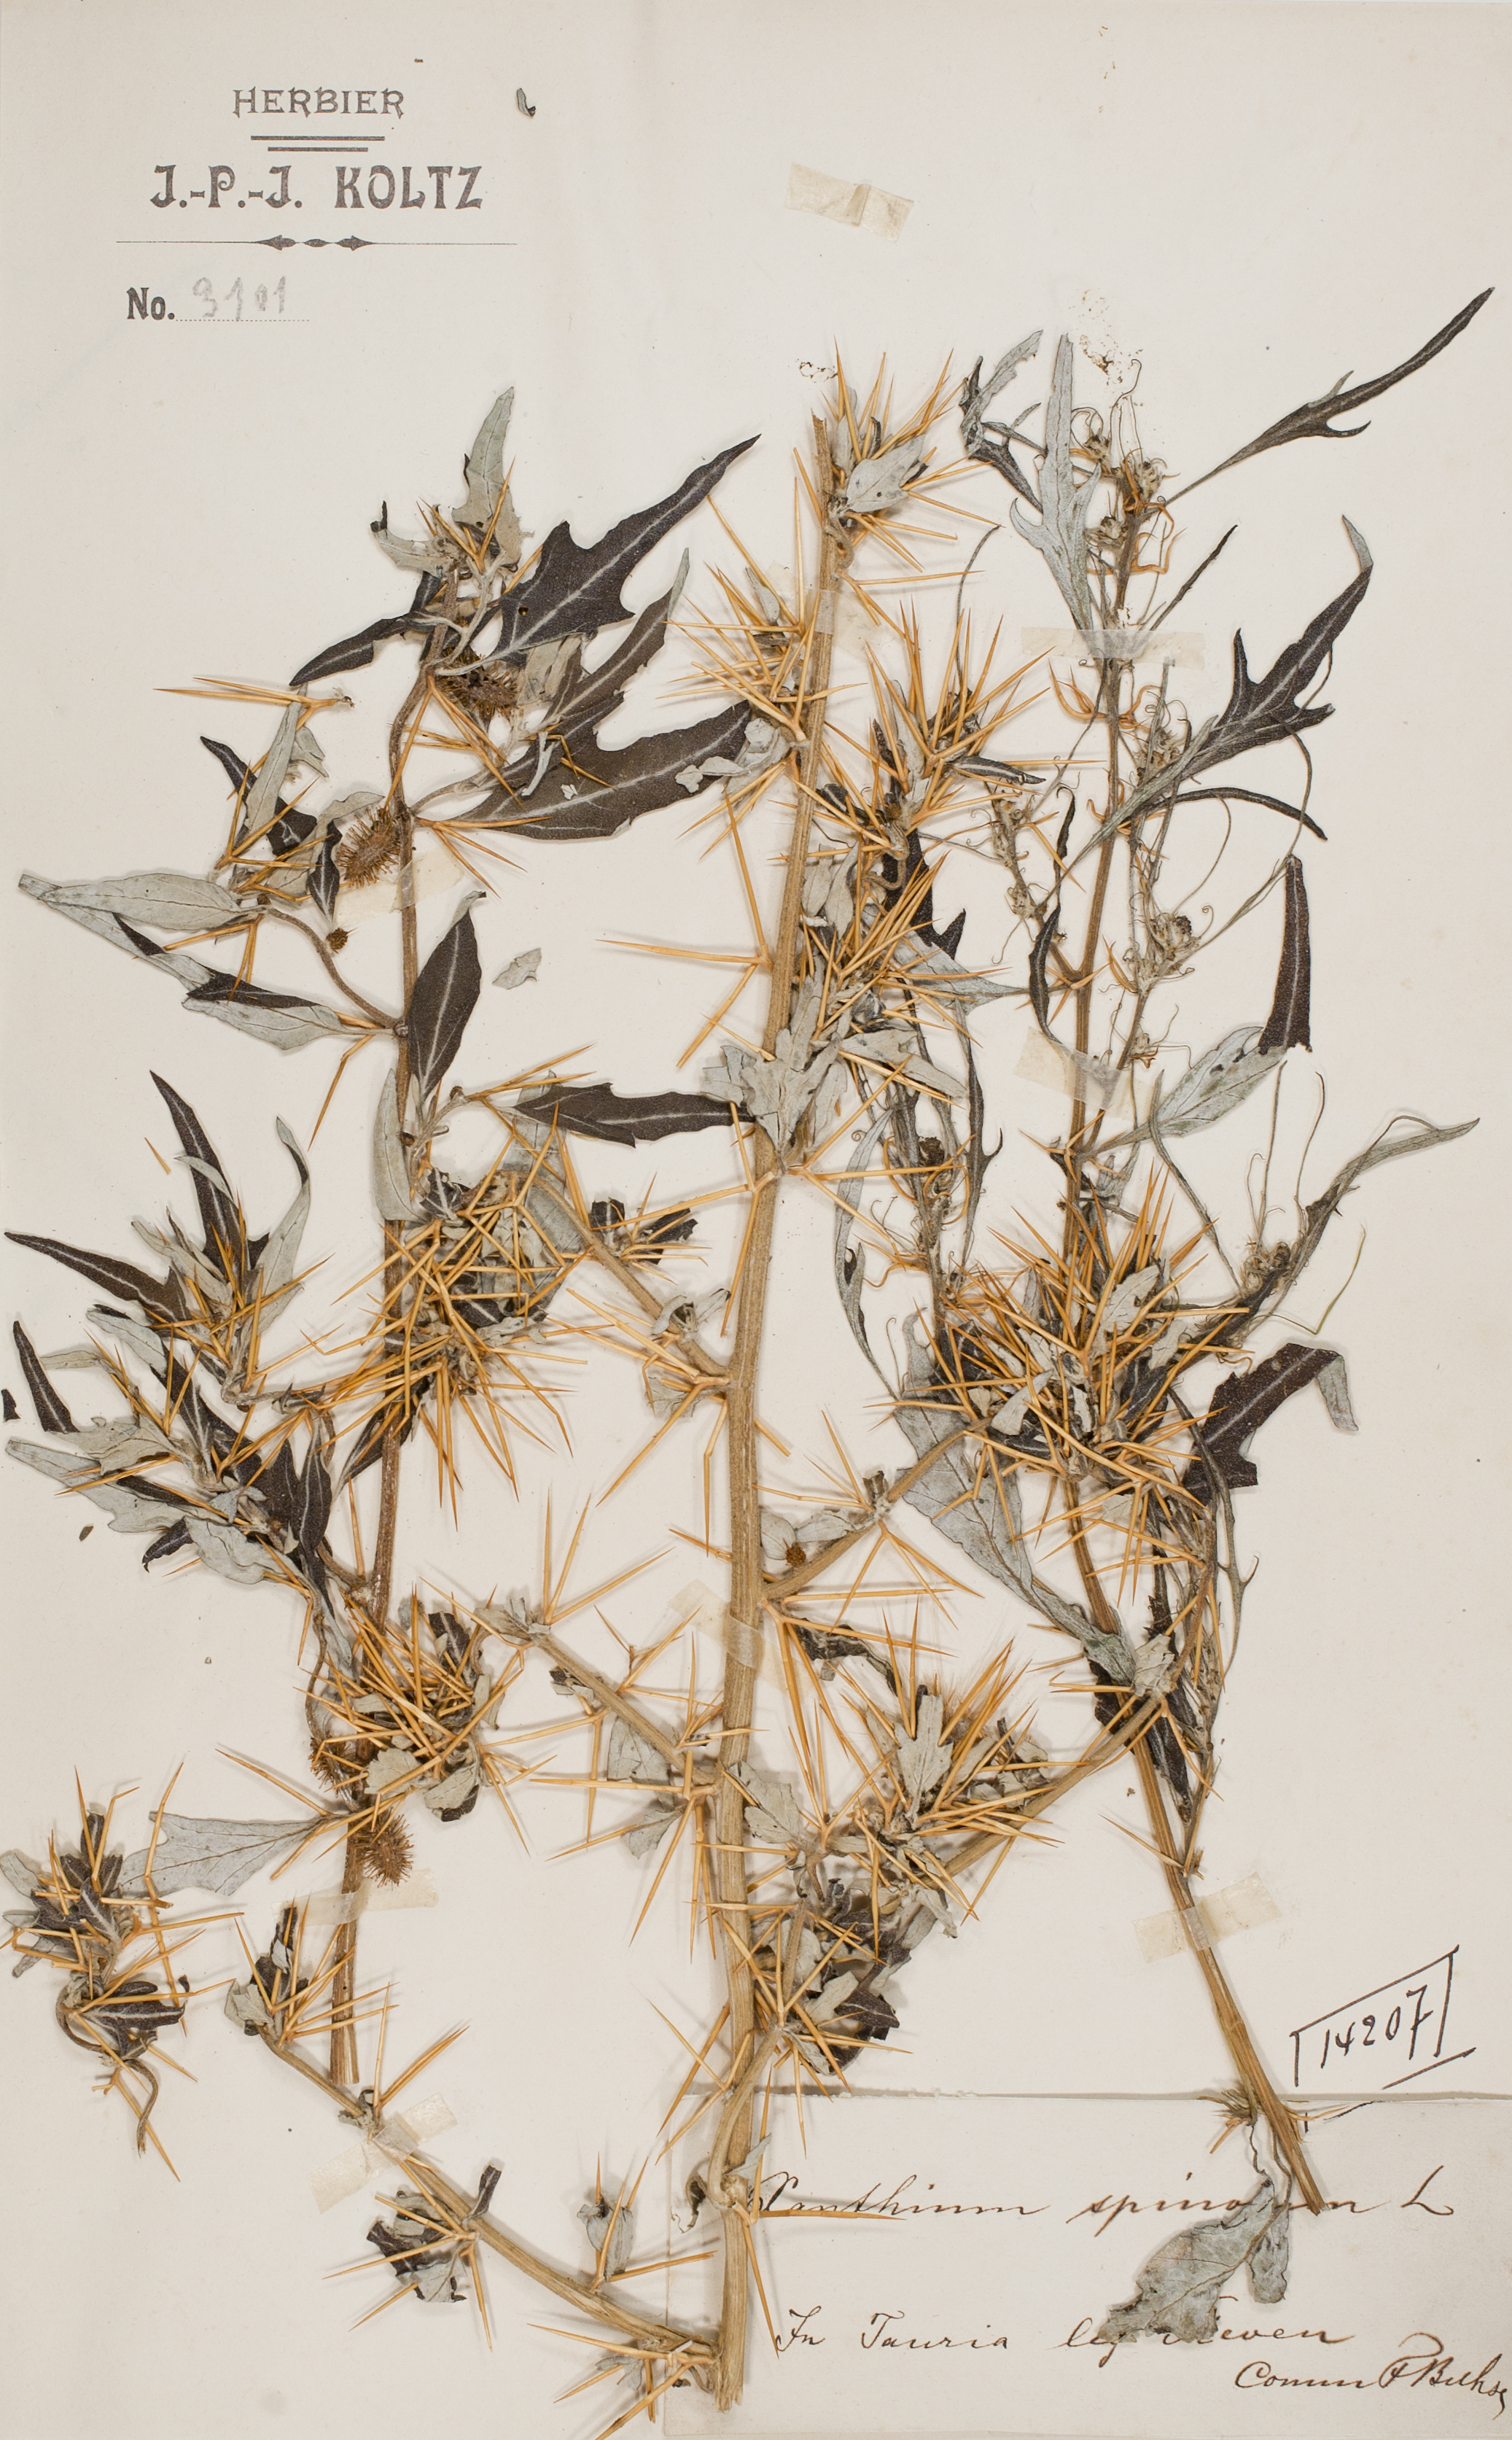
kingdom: Plantae
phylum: Tracheophyta
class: Magnoliopsida
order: Asterales
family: Asteraceae
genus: Xanthium
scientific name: Xanthium spinosum
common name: Spiny cocklebur
